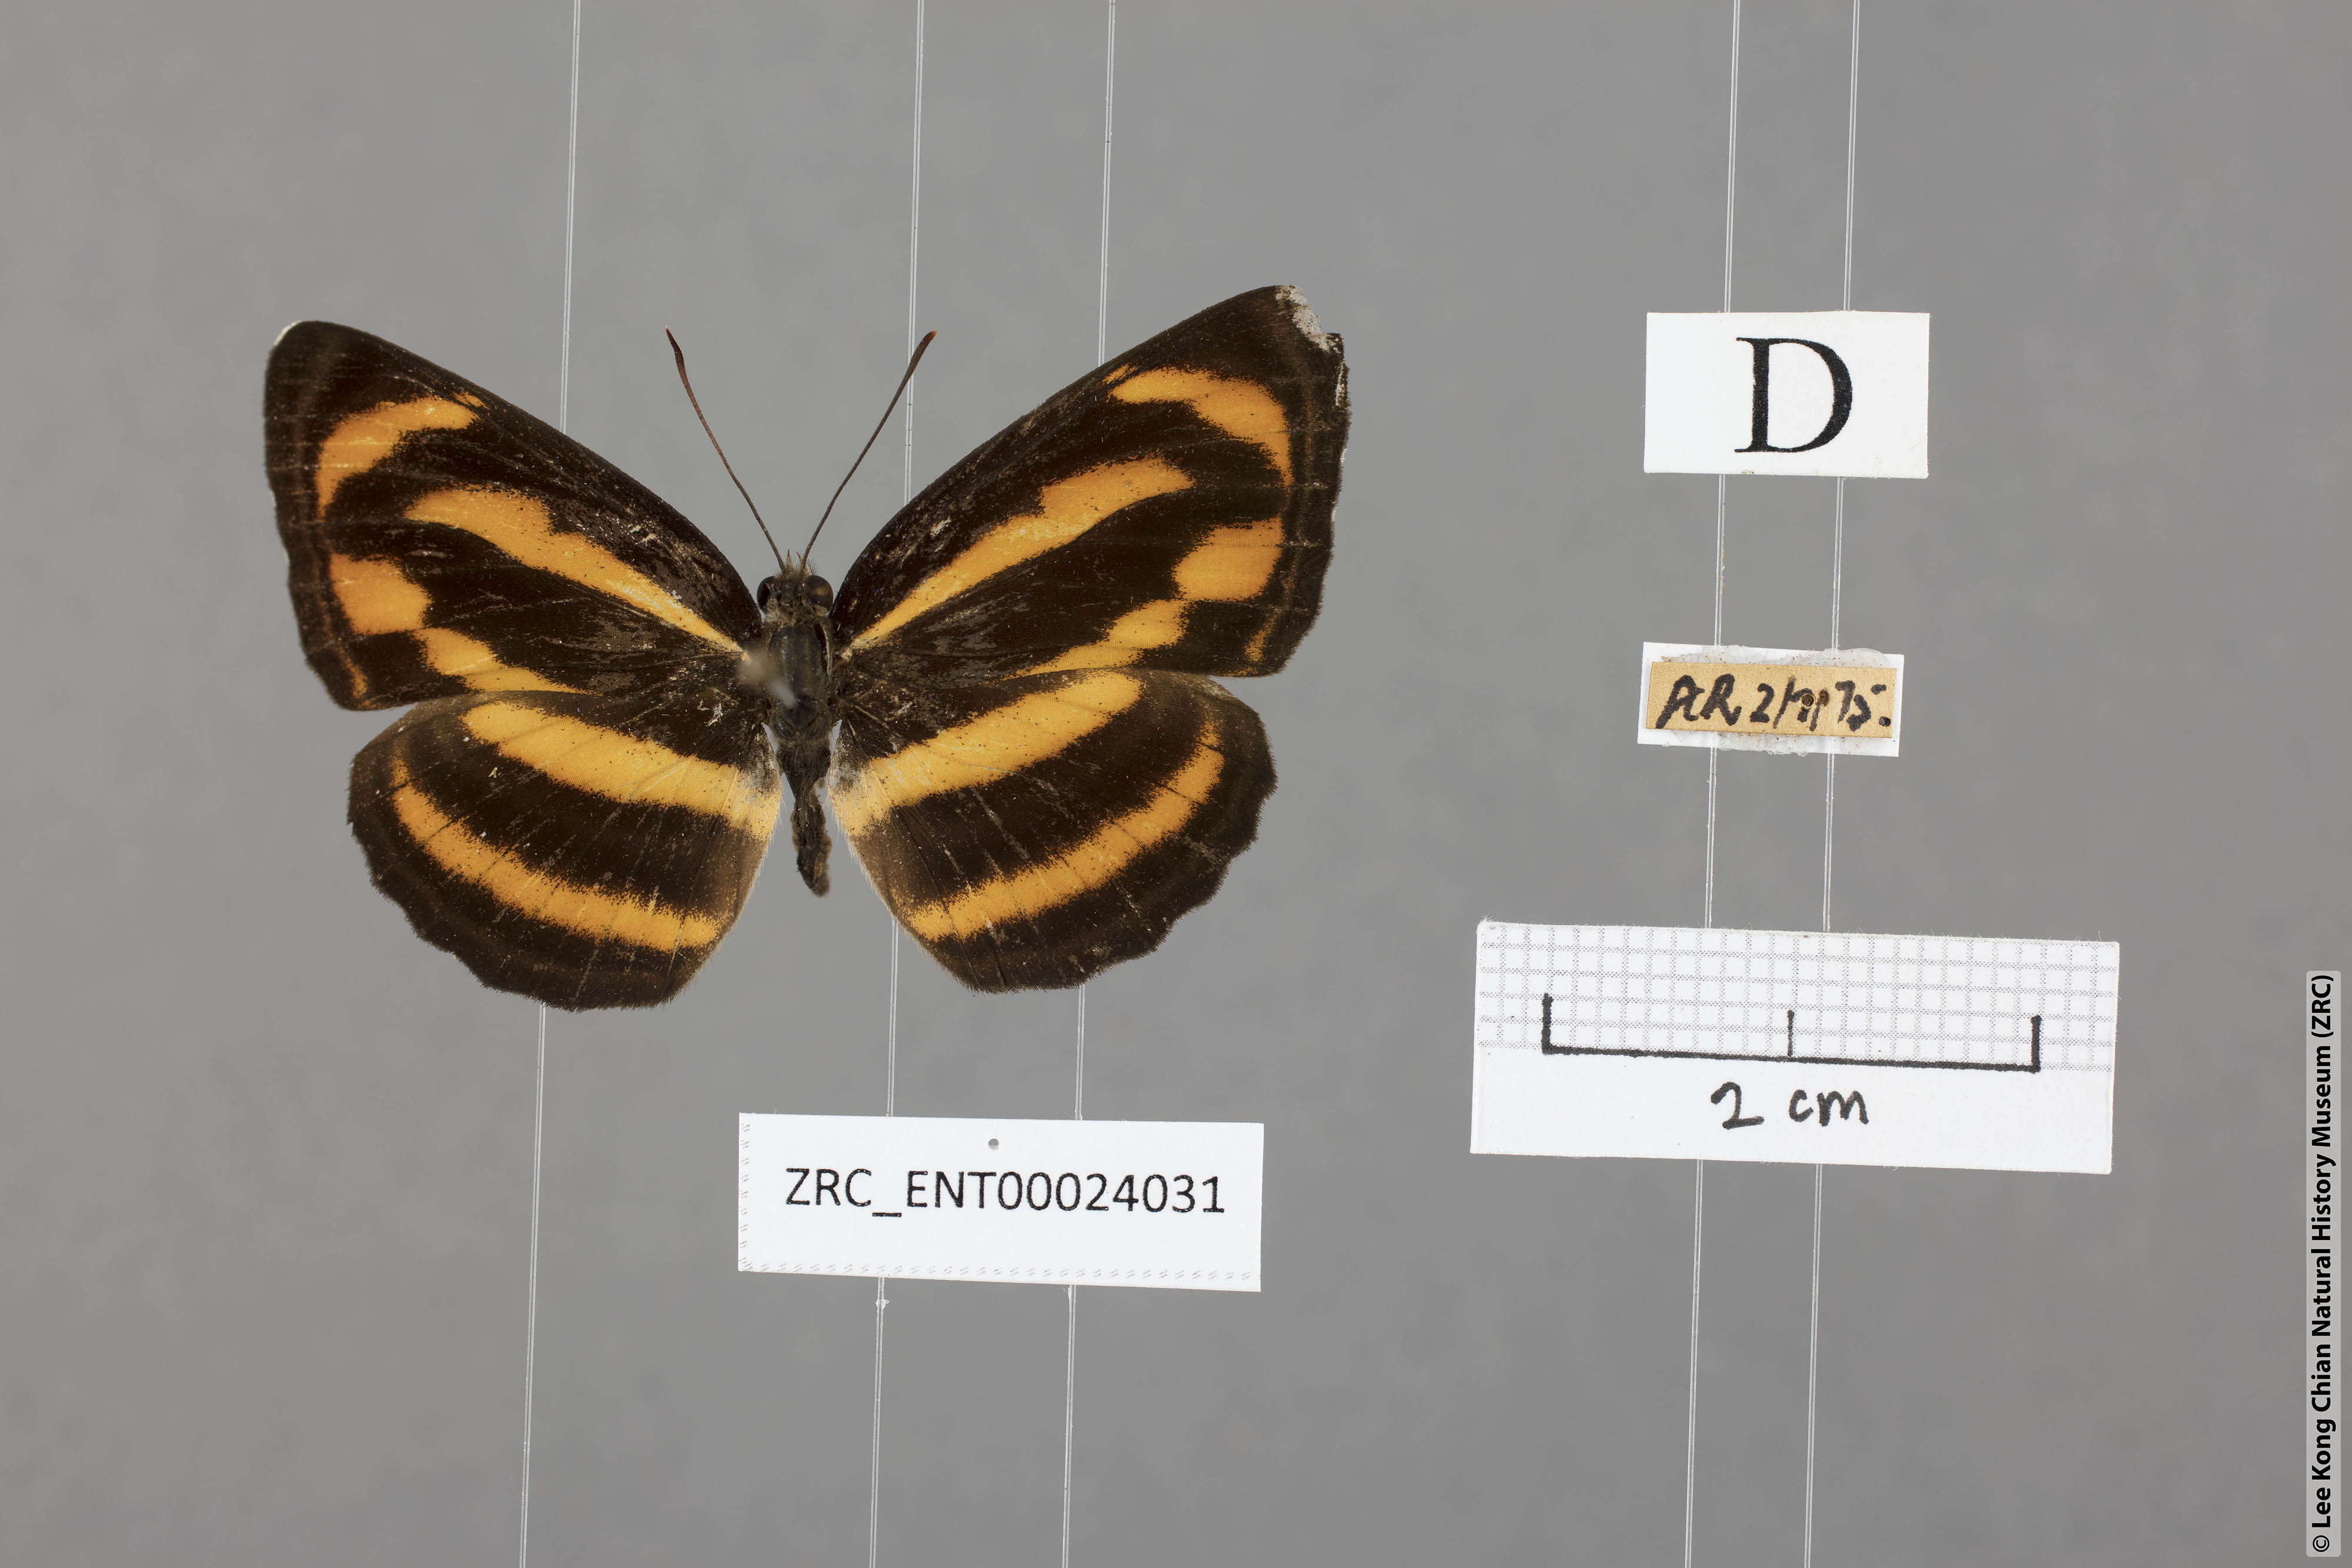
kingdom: Animalia
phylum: Arthropoda
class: Insecta
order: Lepidoptera
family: Nymphalidae
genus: Neptis
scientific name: Neptis miah
